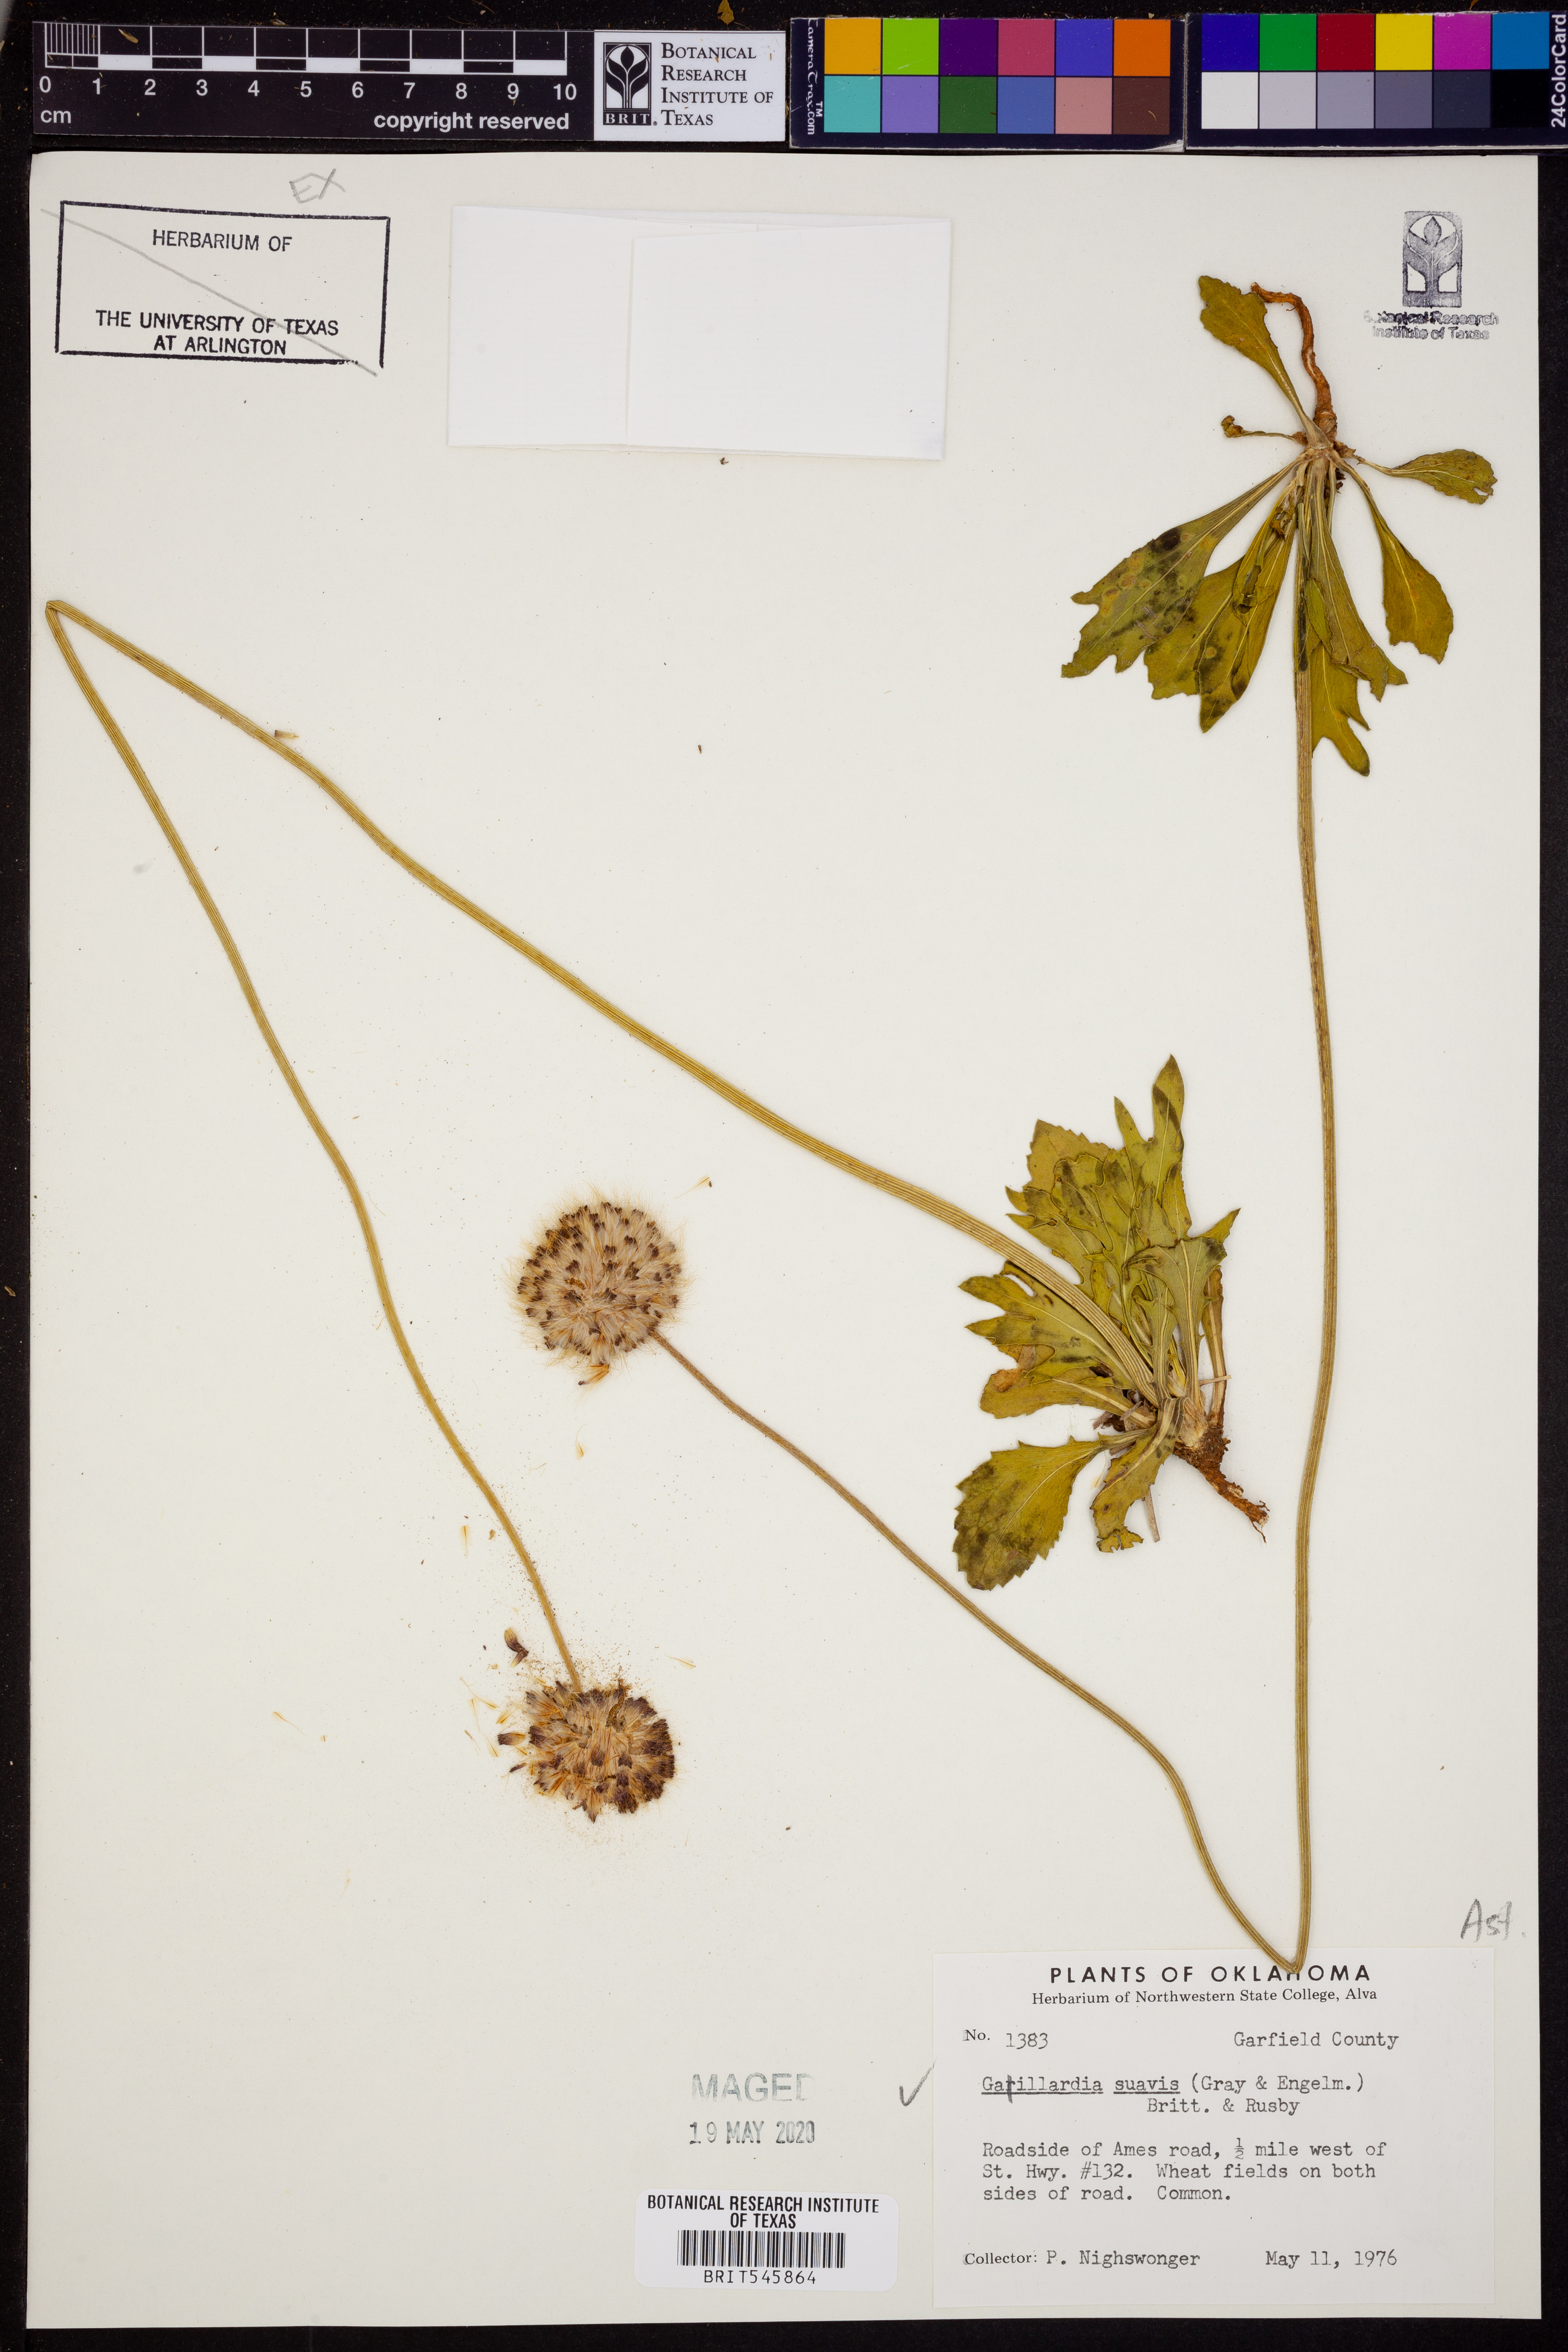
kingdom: Plantae
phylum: Tracheophyta
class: Magnoliopsida
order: Asterales
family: Asteraceae
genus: Gaillardia
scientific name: Gaillardia suavis
